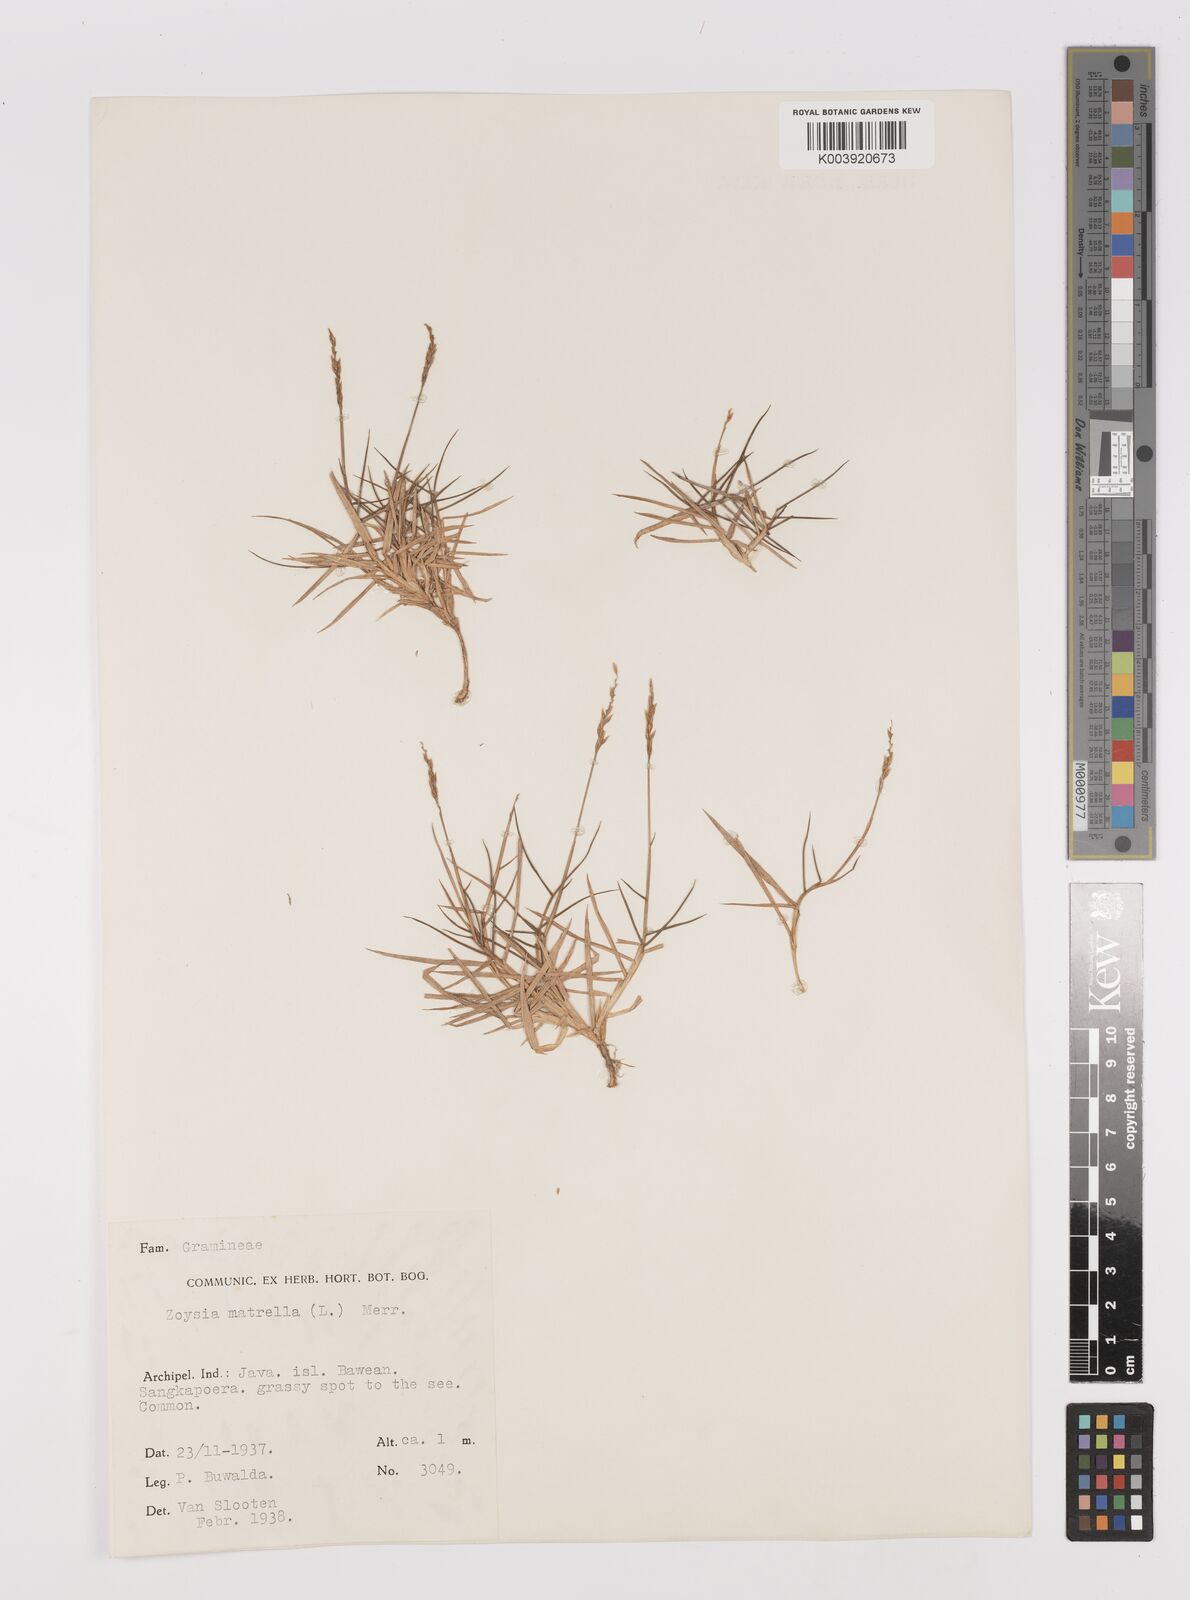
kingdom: Plantae
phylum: Tracheophyta
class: Liliopsida
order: Poales
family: Poaceae
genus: Zoysia
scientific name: Zoysia matrella
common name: Manila grass
